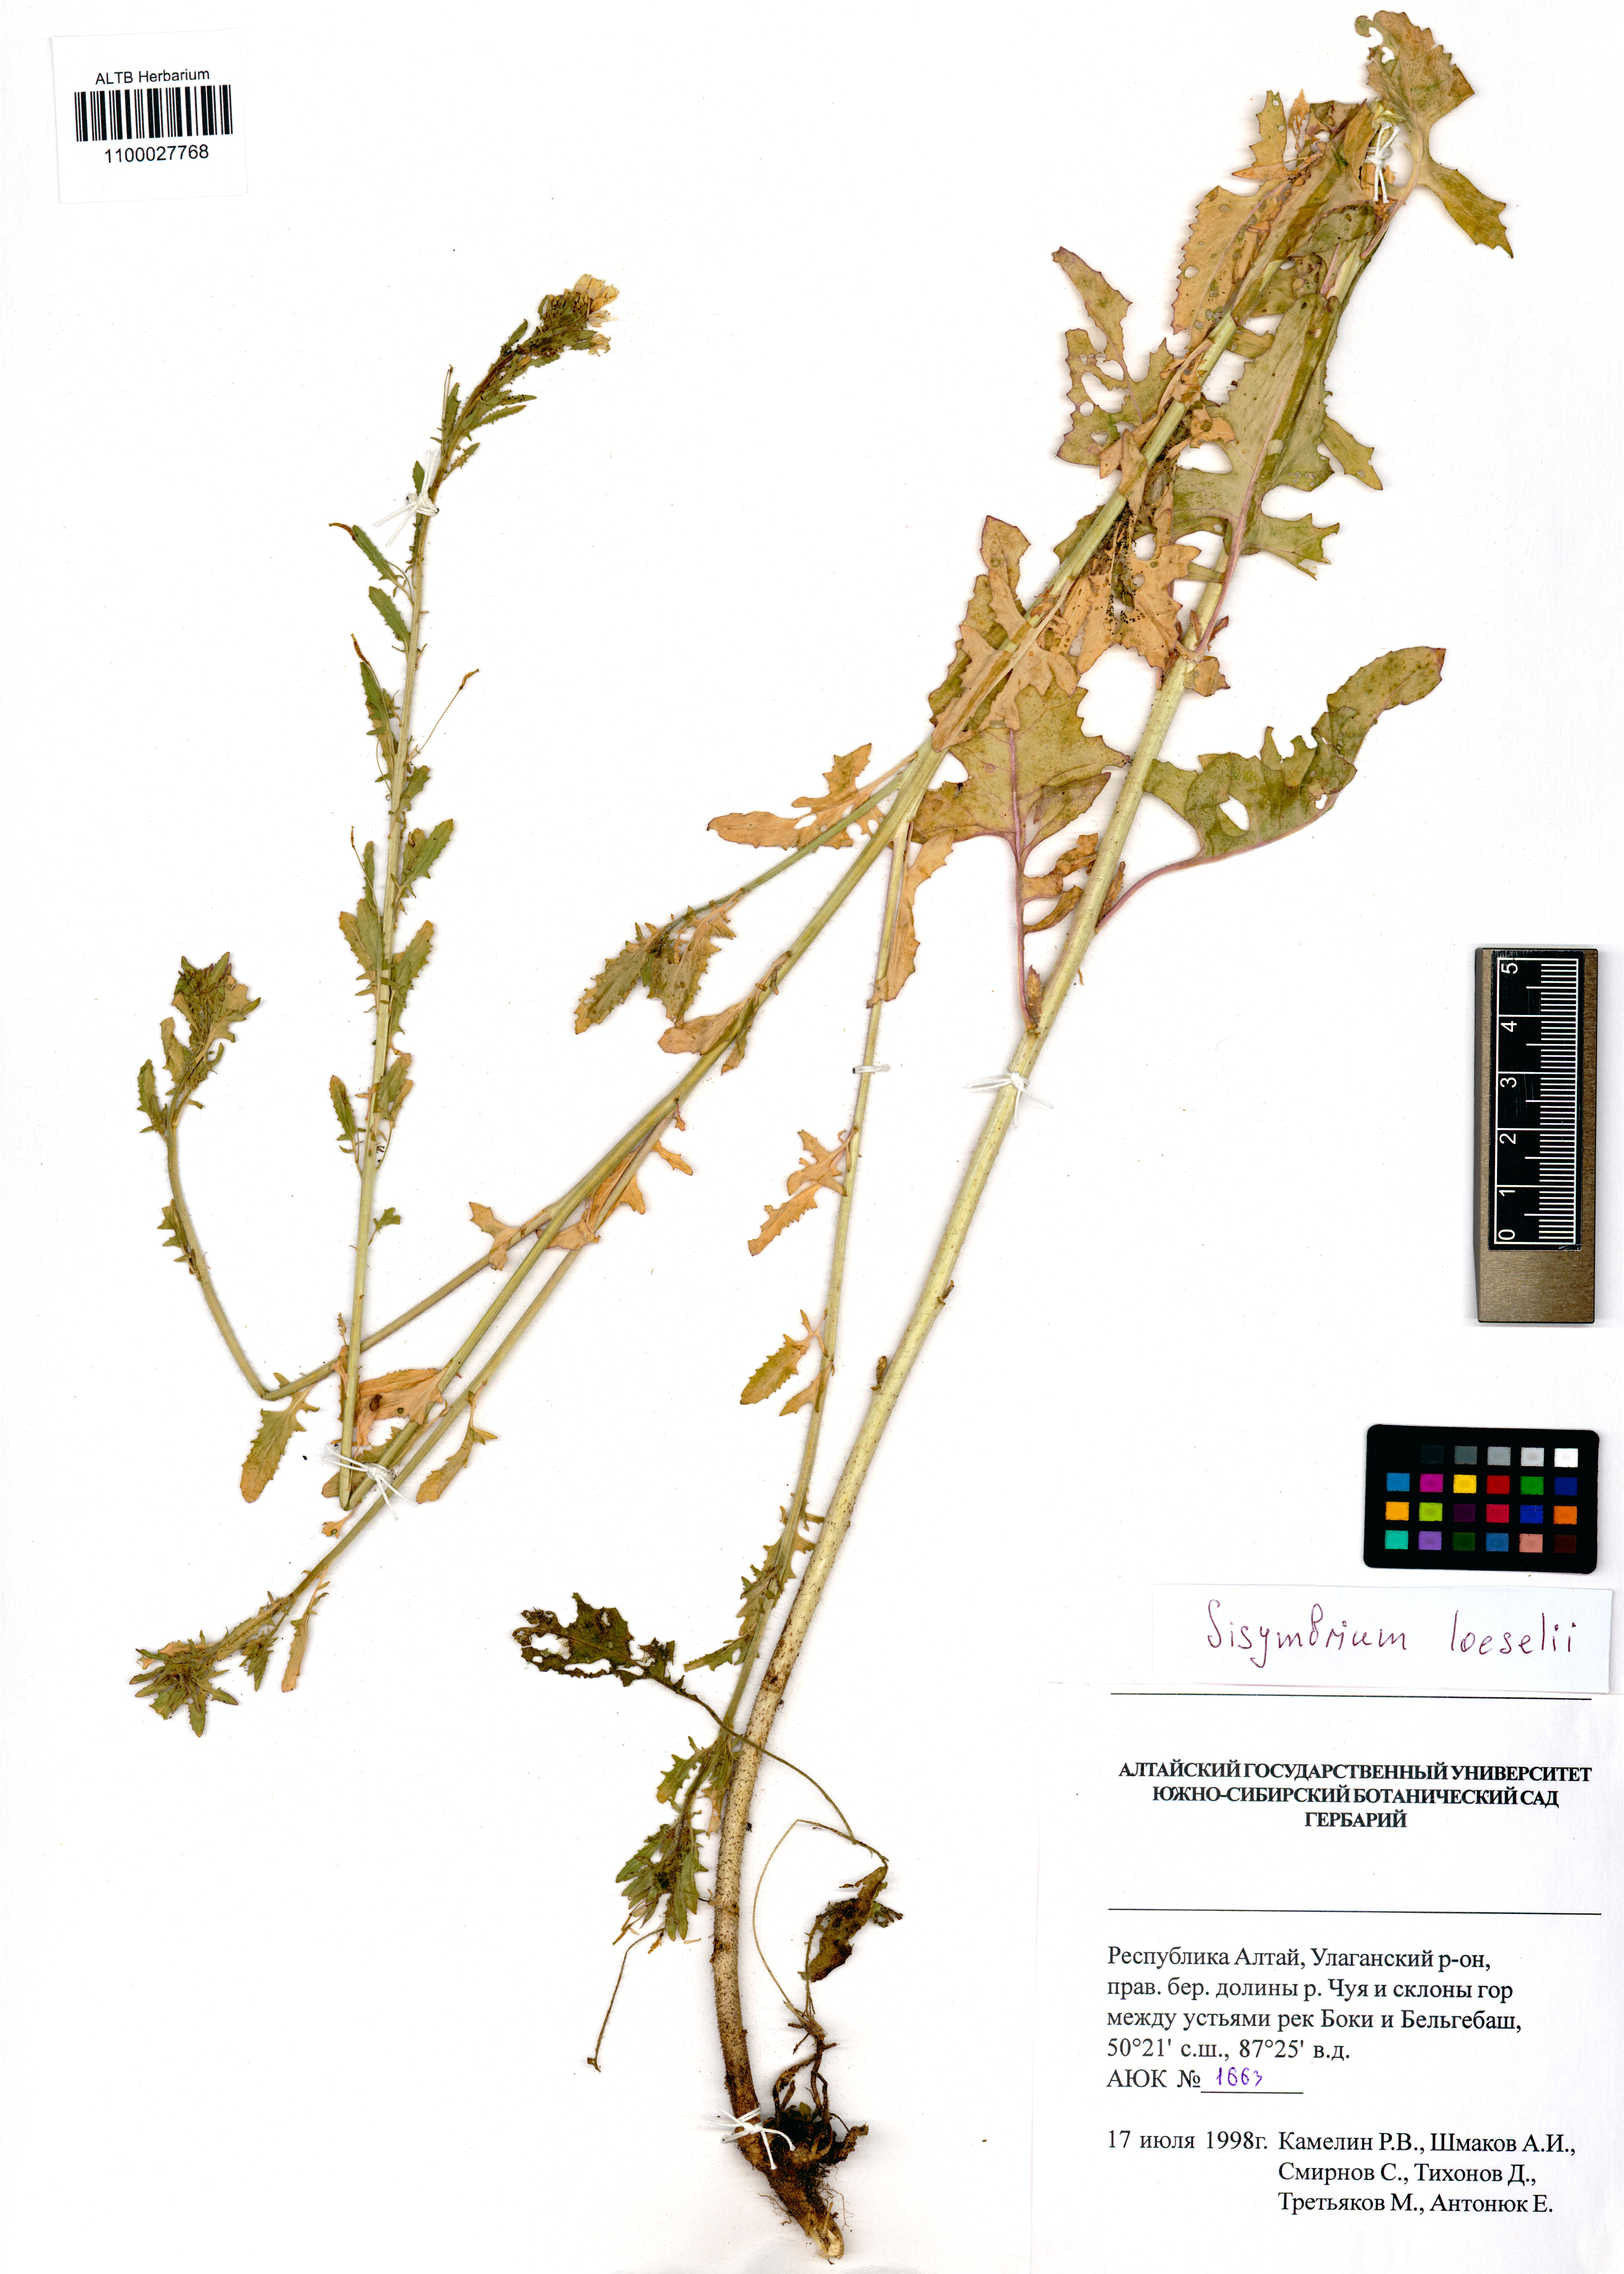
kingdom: Plantae
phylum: Tracheophyta
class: Magnoliopsida
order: Brassicales
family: Brassicaceae
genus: Sisymbrium
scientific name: Sisymbrium loeselii
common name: False london-rocket
